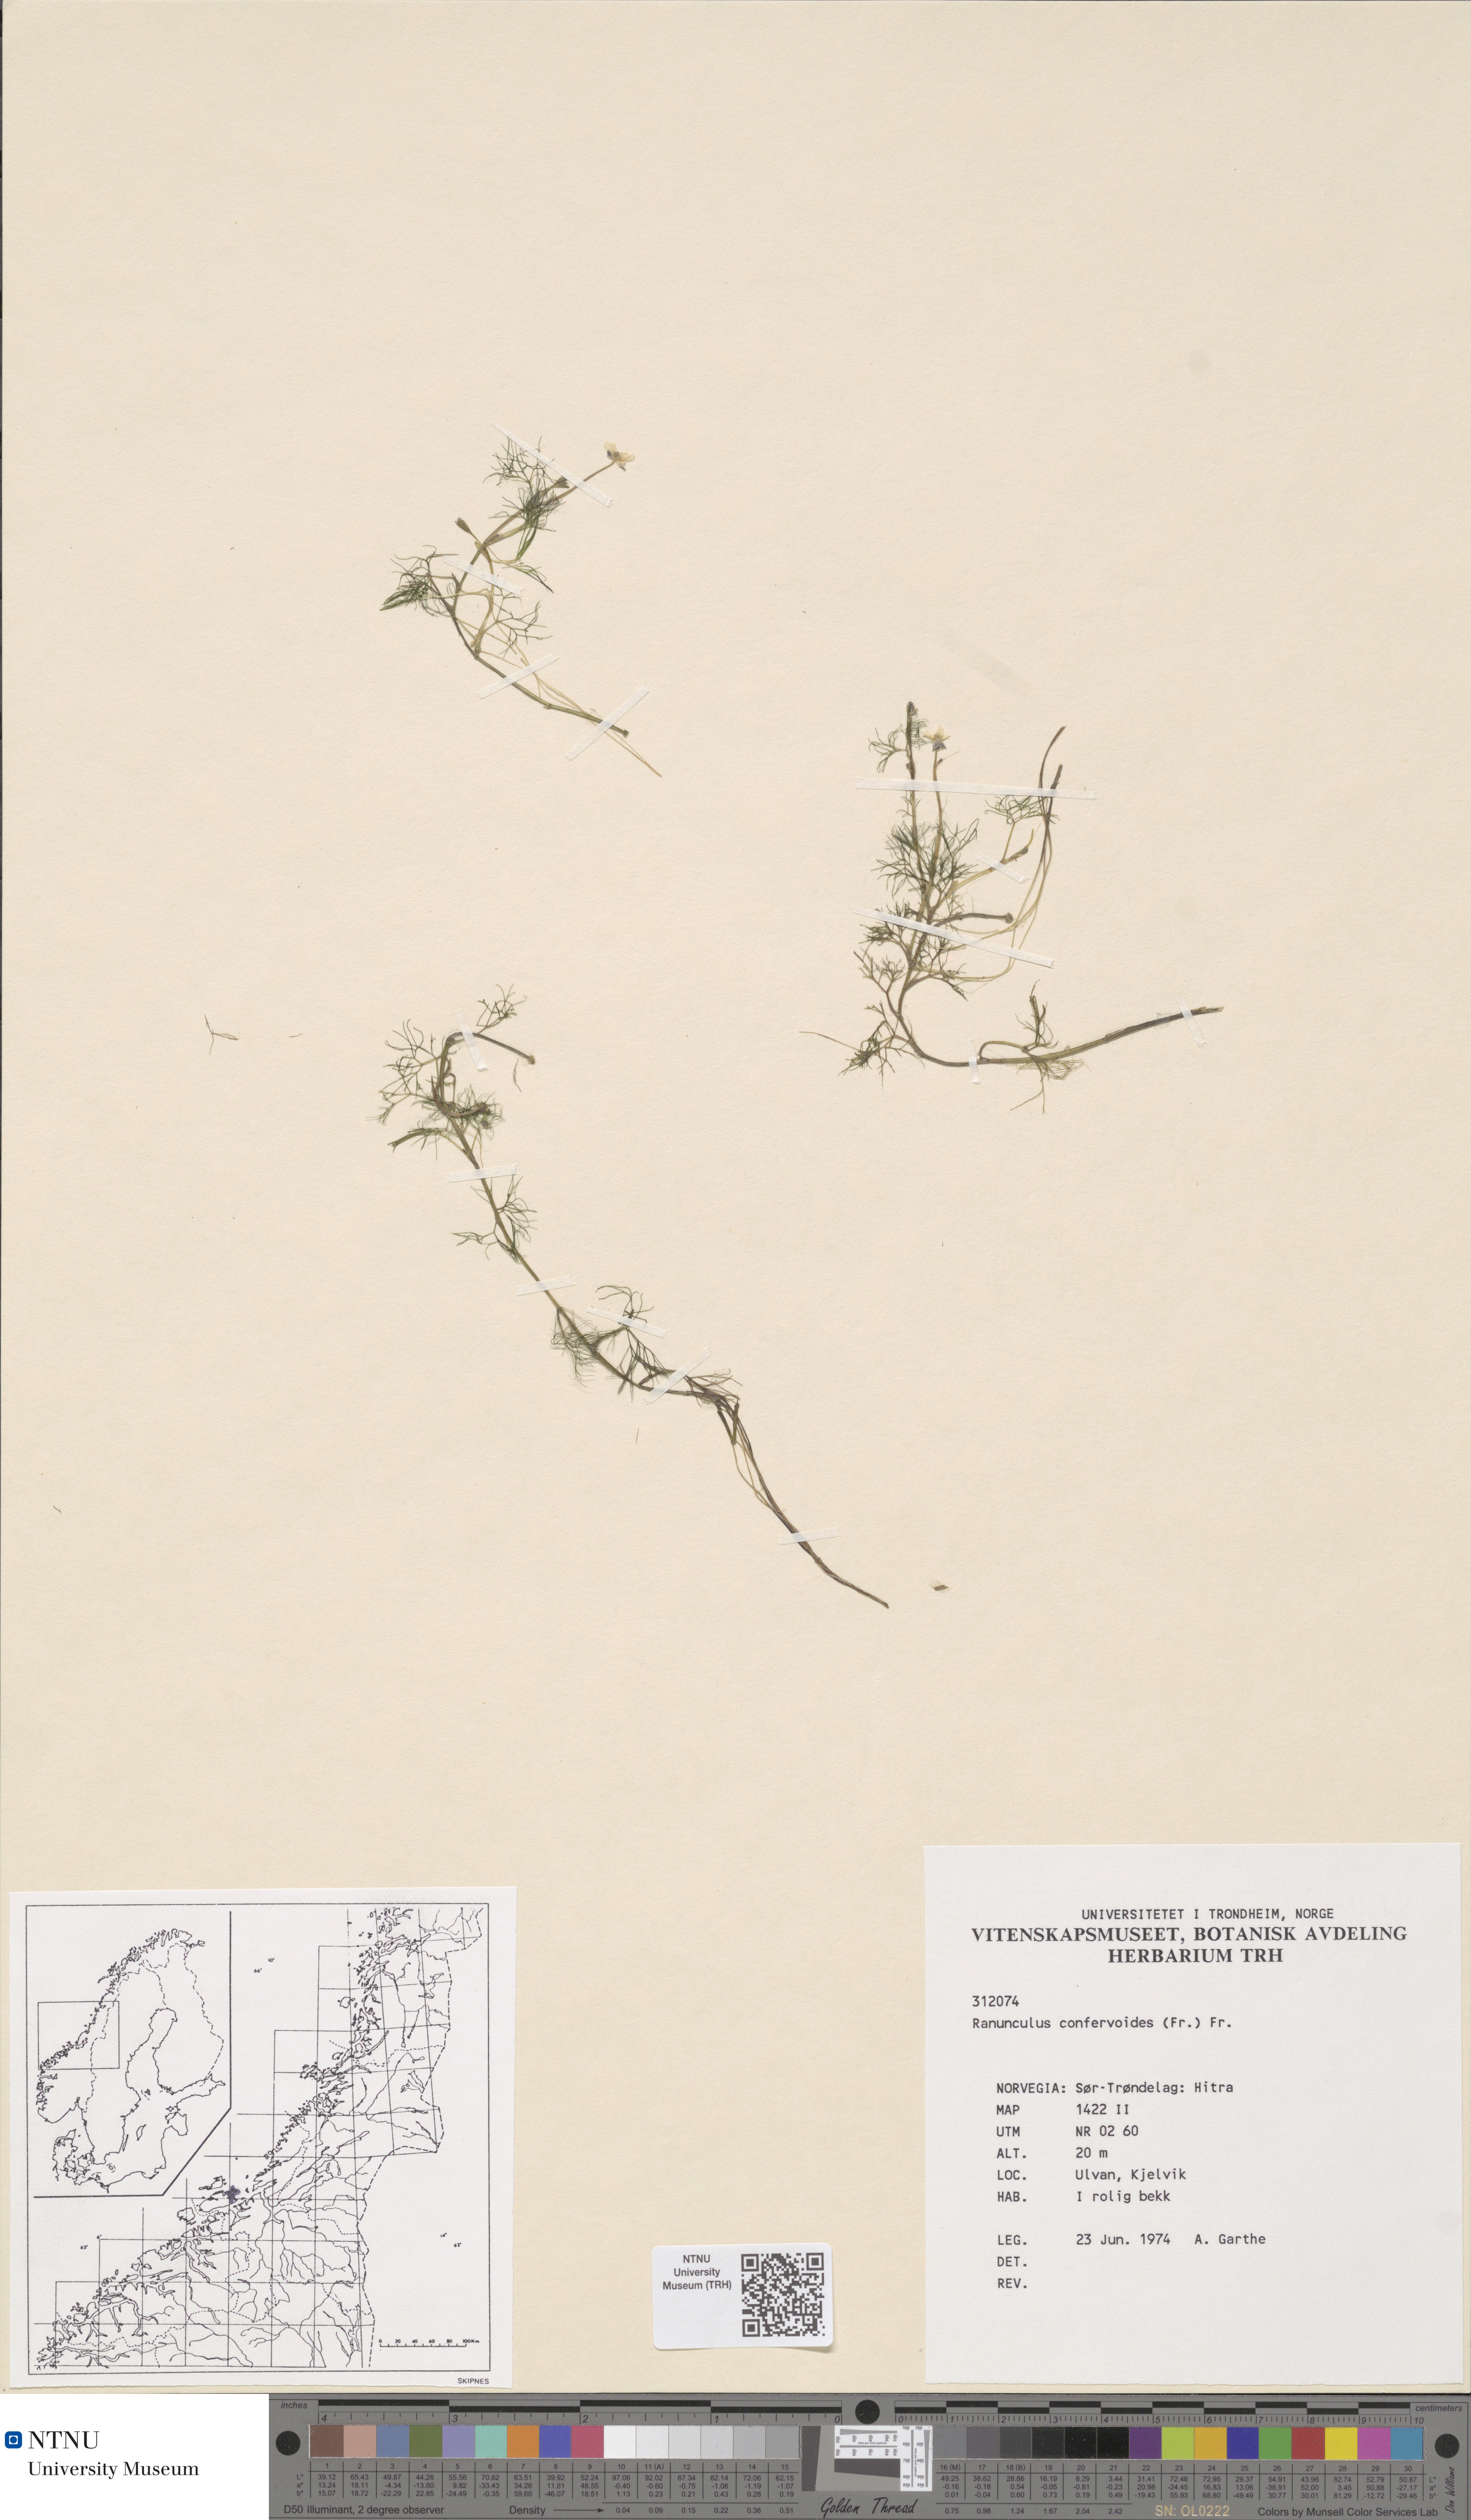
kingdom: Plantae
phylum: Tracheophyta
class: Magnoliopsida
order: Ranunculales
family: Ranunculaceae
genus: Ranunculus
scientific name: Ranunculus confervoides
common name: Delicate buttercup
